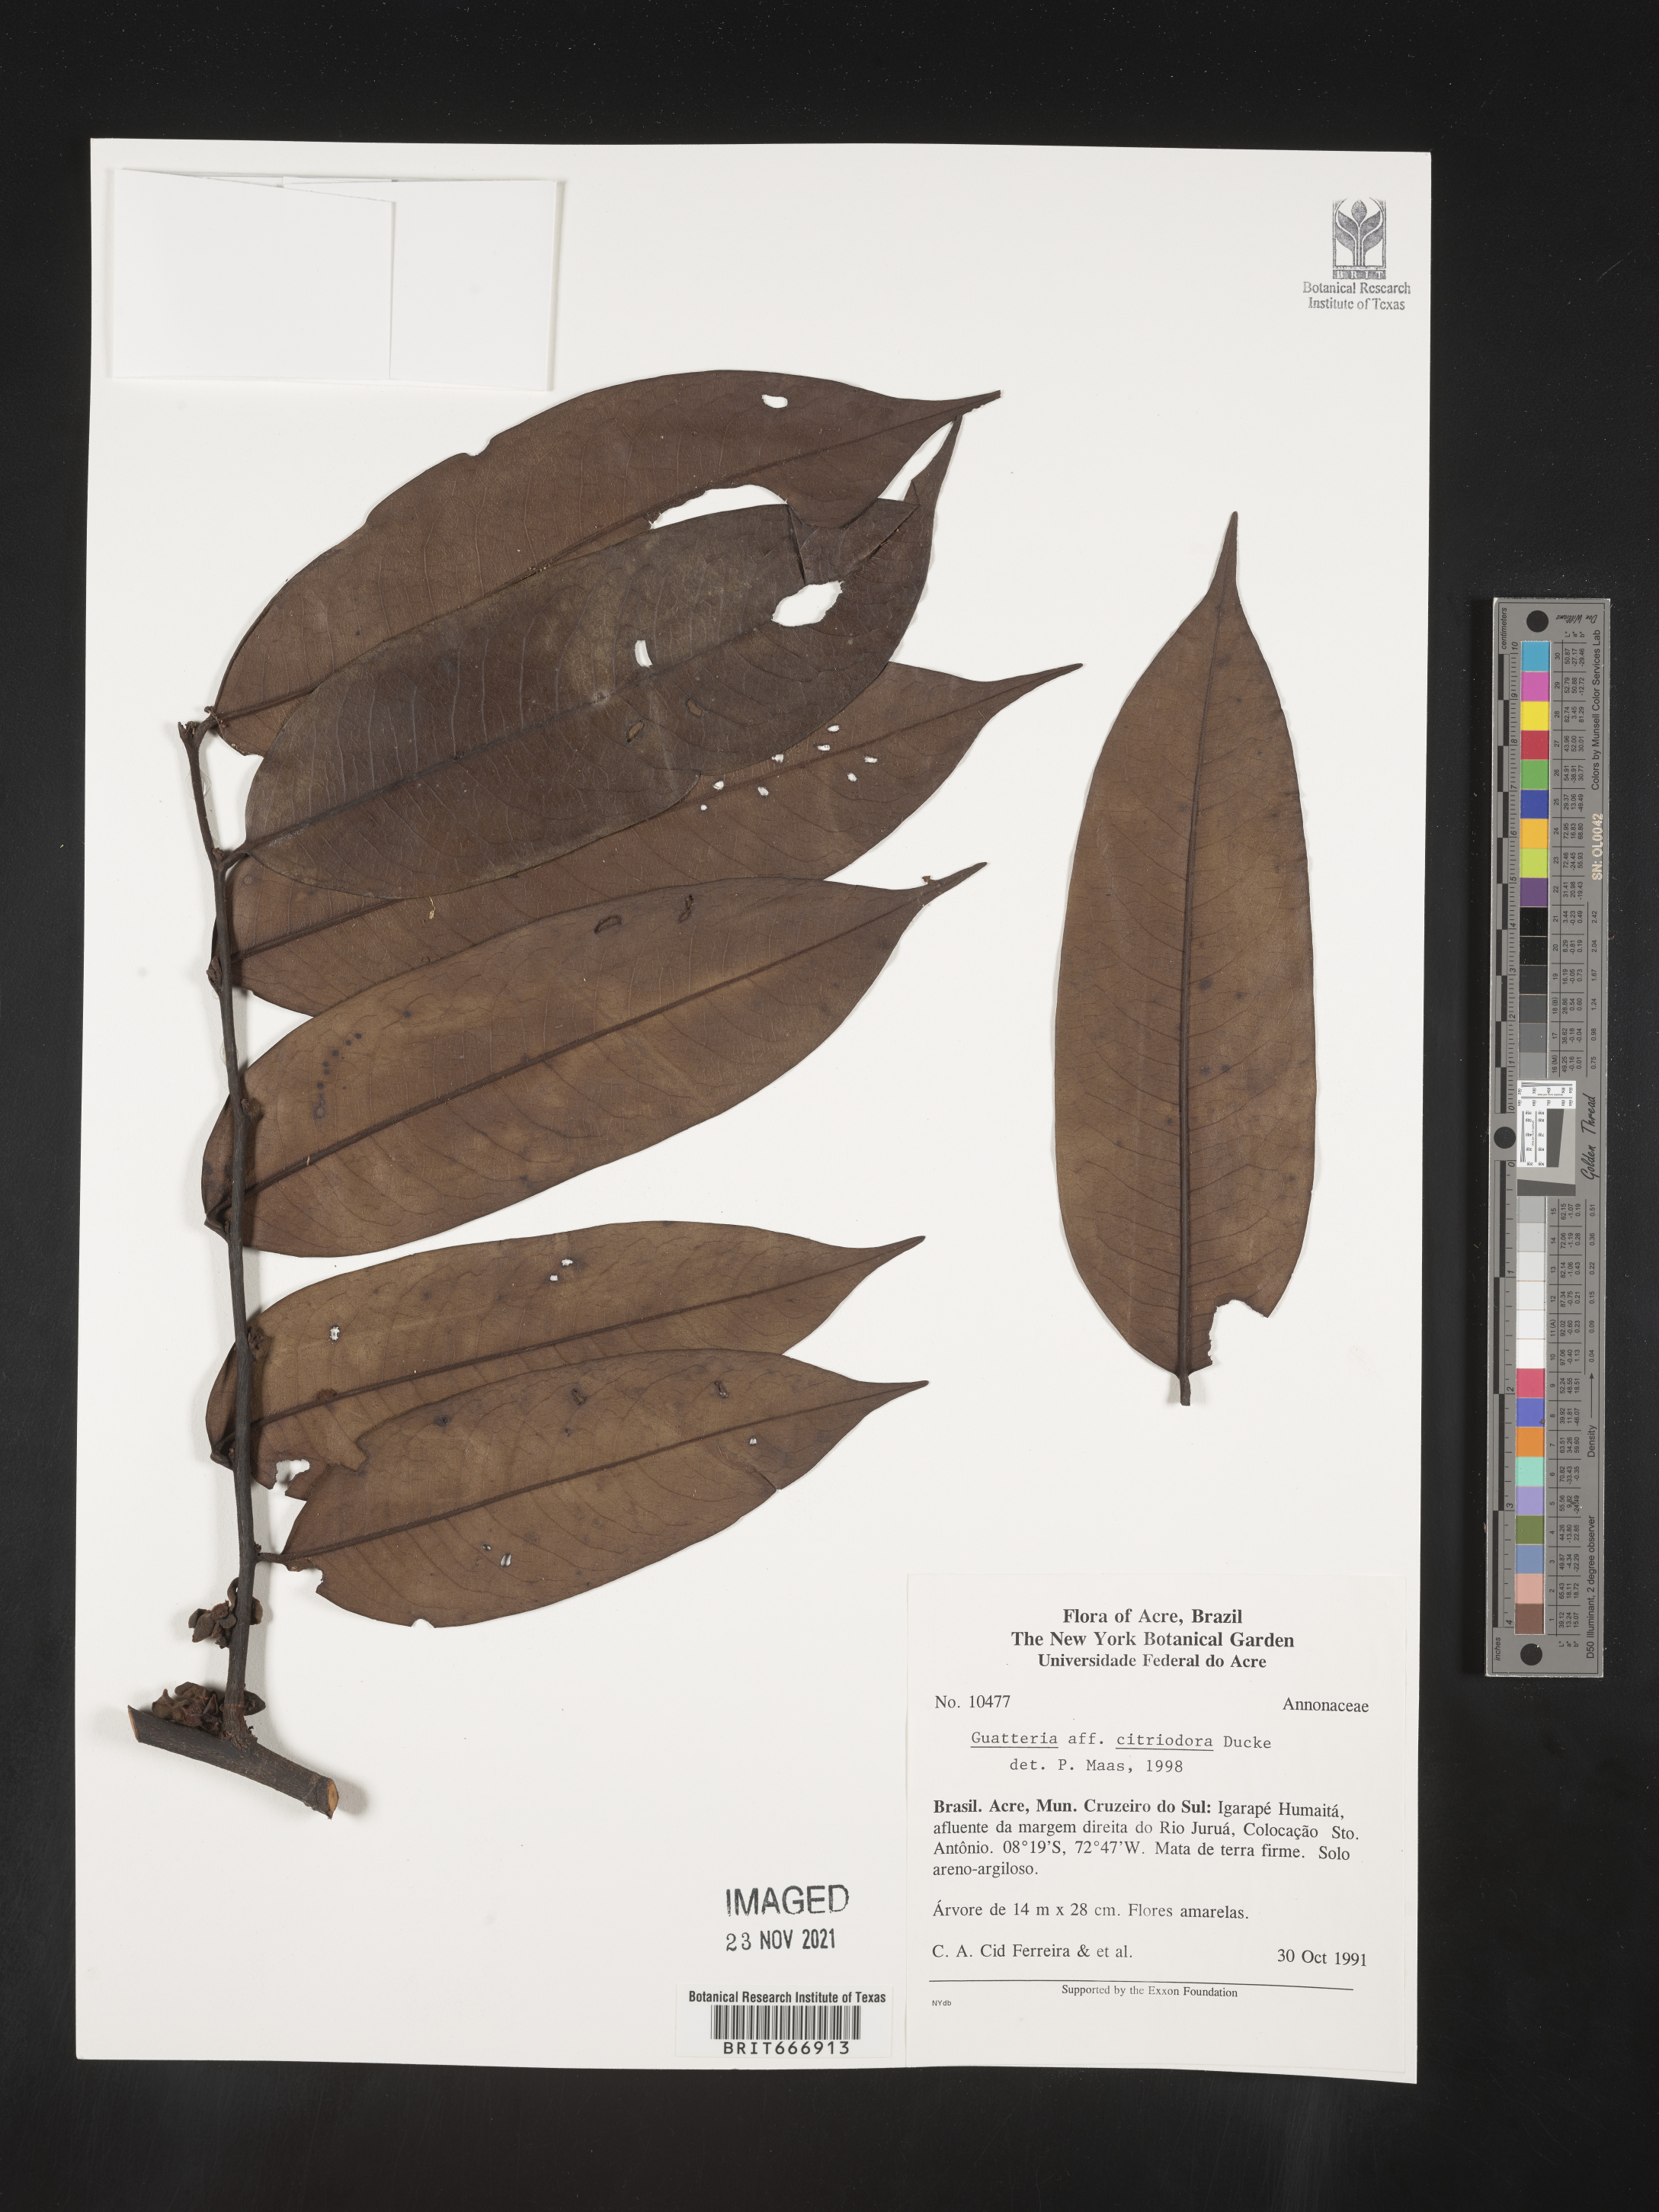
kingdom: Plantae
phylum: Tracheophyta
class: Magnoliopsida
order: Magnoliales
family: Annonaceae
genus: Guatteria
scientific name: Guatteria
